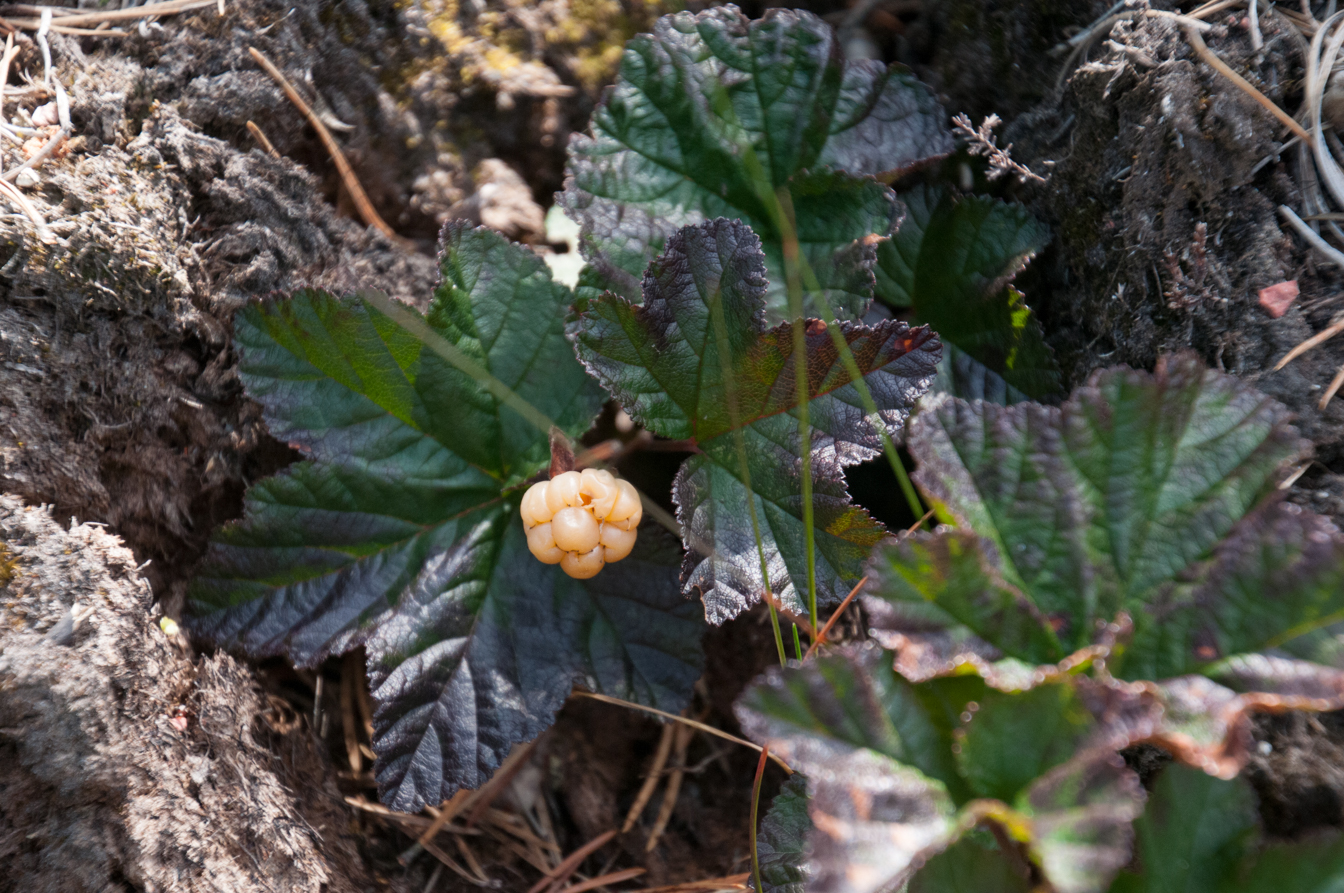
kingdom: Plantae
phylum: Tracheophyta
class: Magnoliopsida
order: Rosales
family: Rosaceae
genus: Rubus
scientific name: Rubus chamaemorus
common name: Cloudberry
